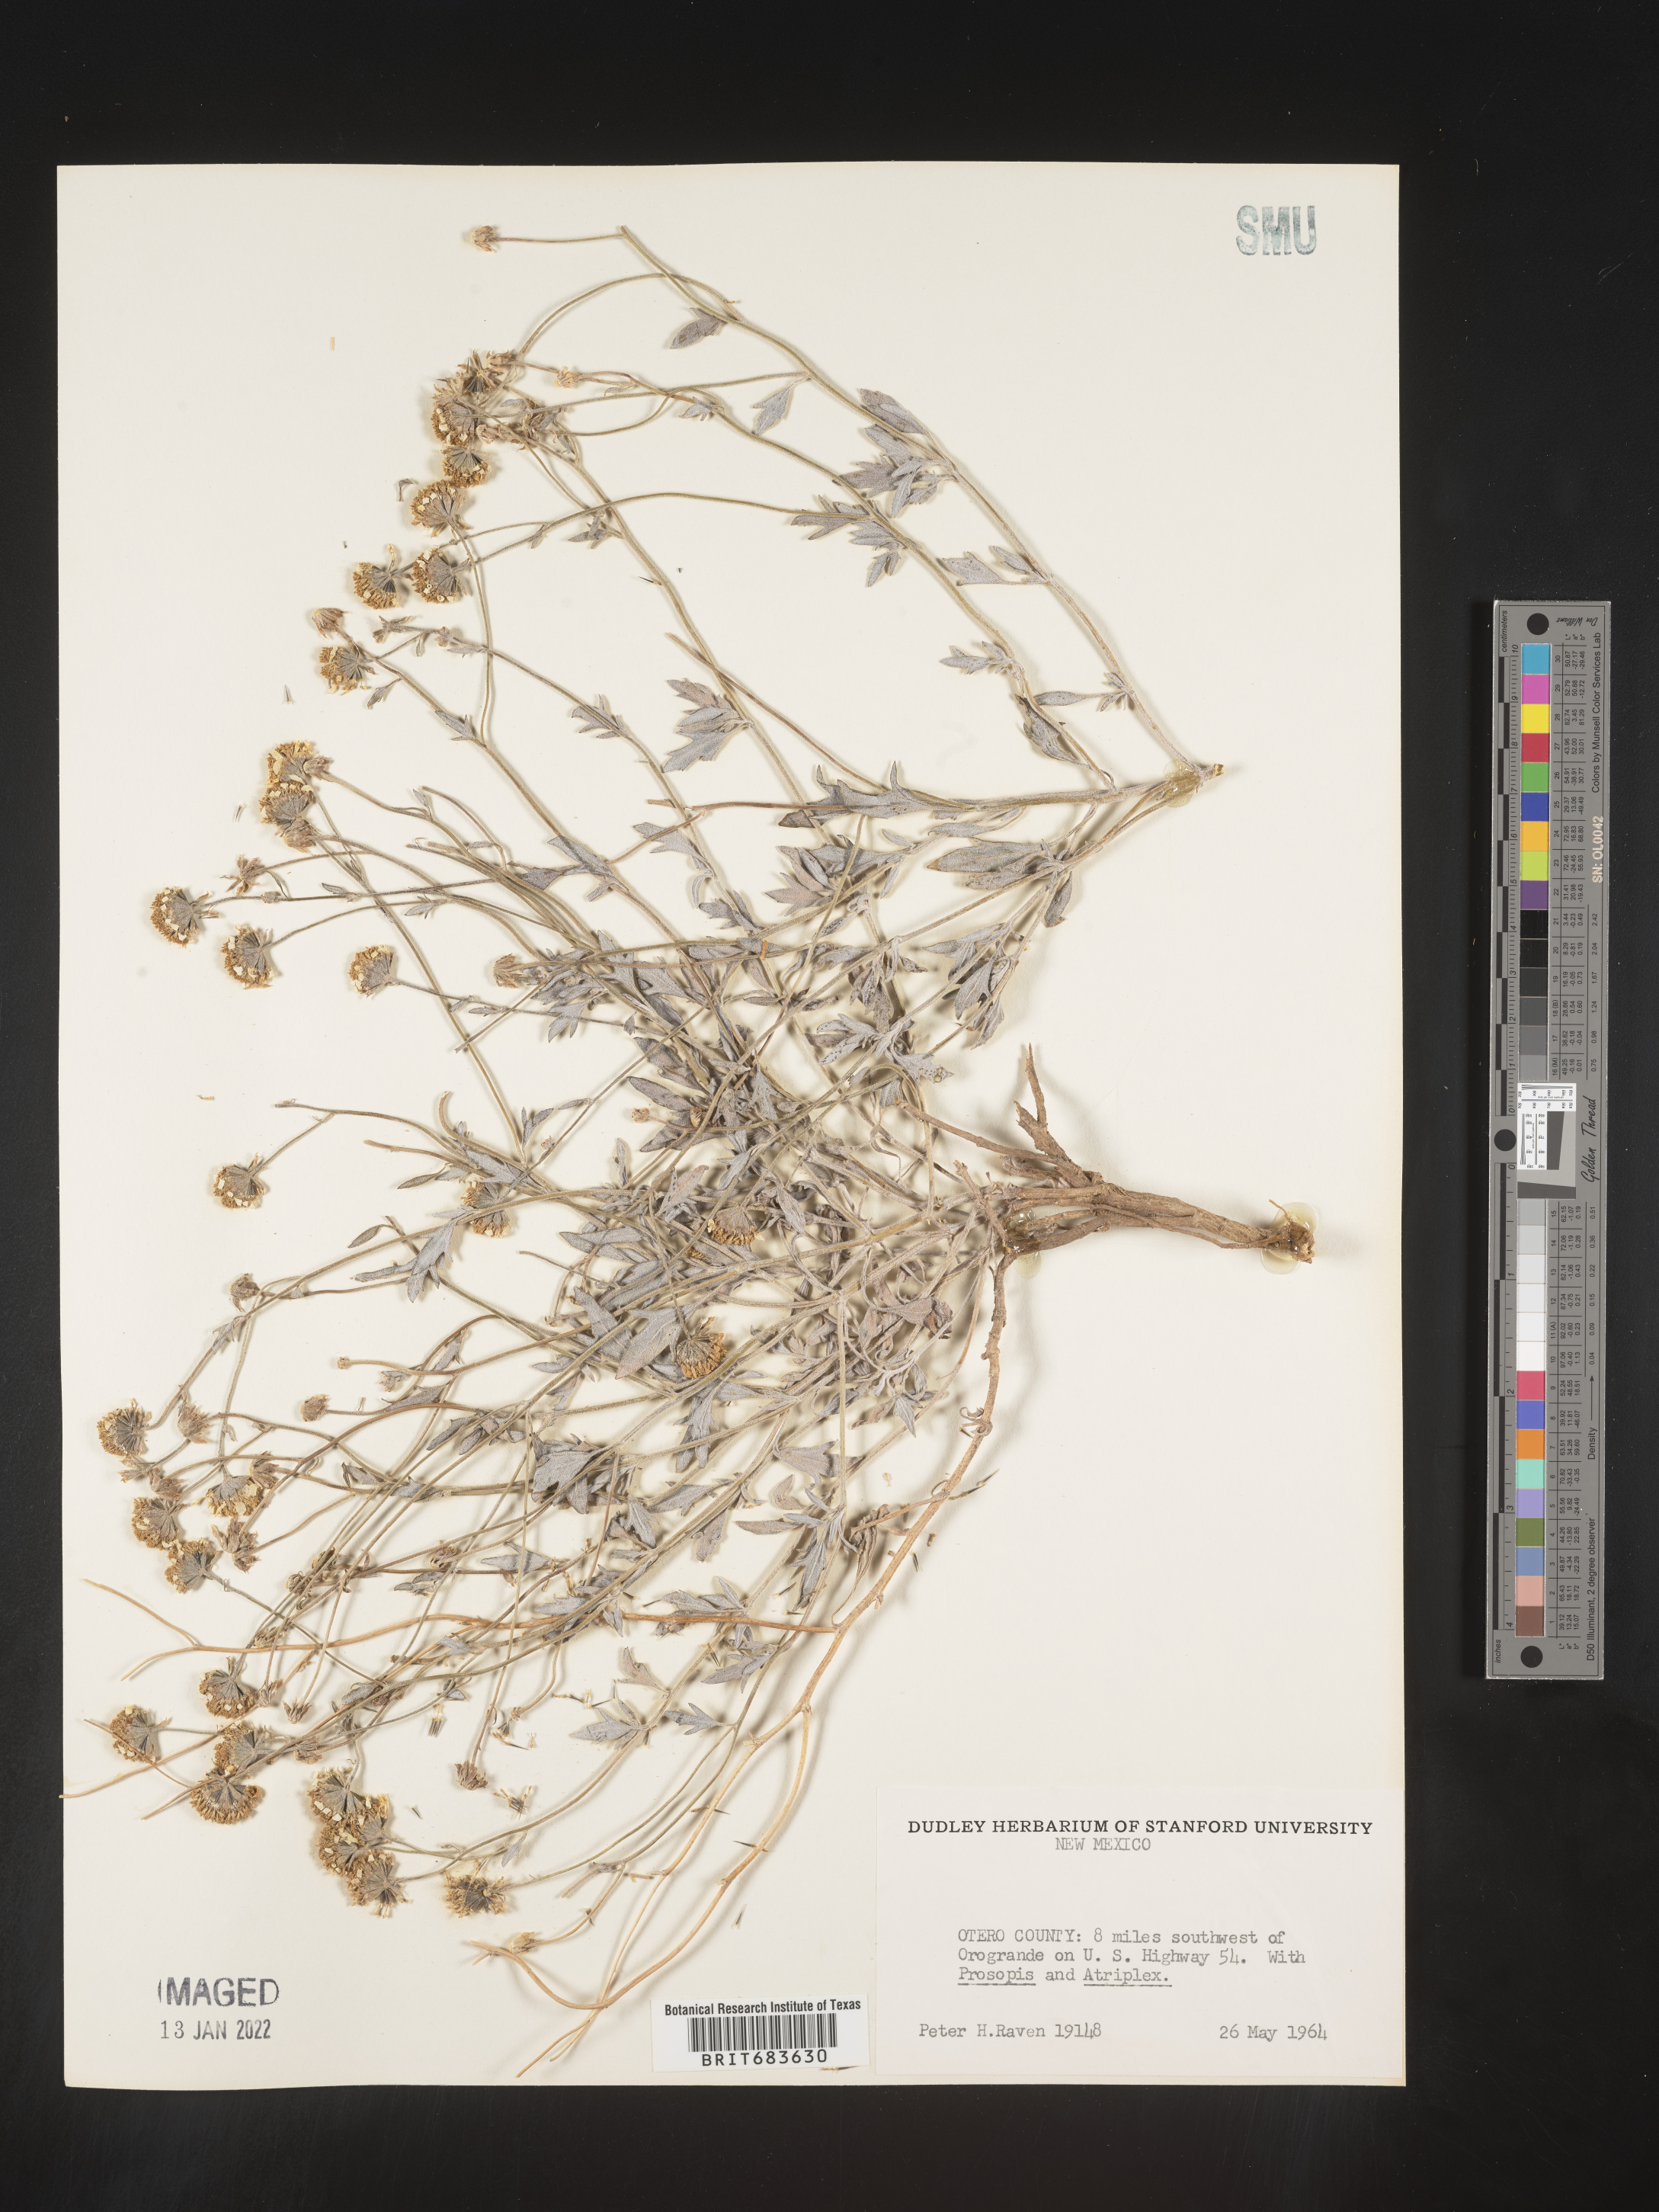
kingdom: Plantae
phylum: Tracheophyta
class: Magnoliopsida
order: Asterales
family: Asteraceae
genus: Picradeniopsis
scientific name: Picradeniopsis absinthifolia
